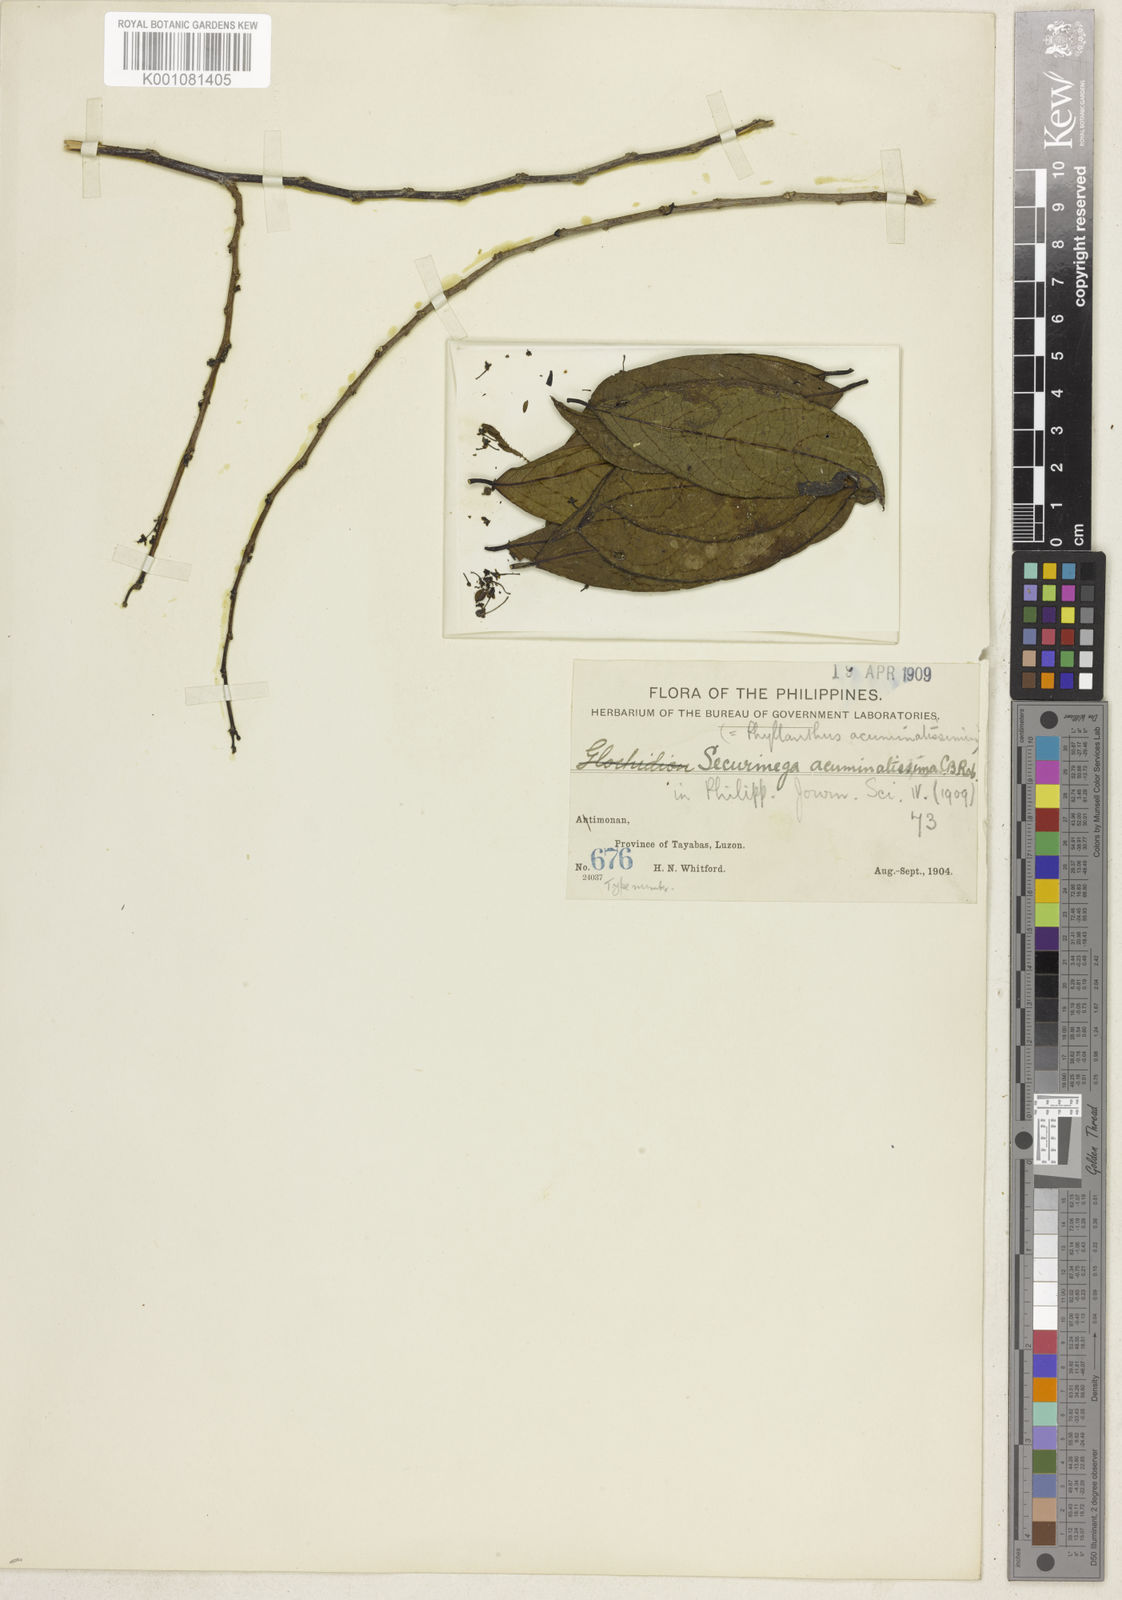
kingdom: Plantae
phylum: Tracheophyta
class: Magnoliopsida
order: Malpighiales
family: Phyllanthaceae
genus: Flueggea
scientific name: Flueggea
